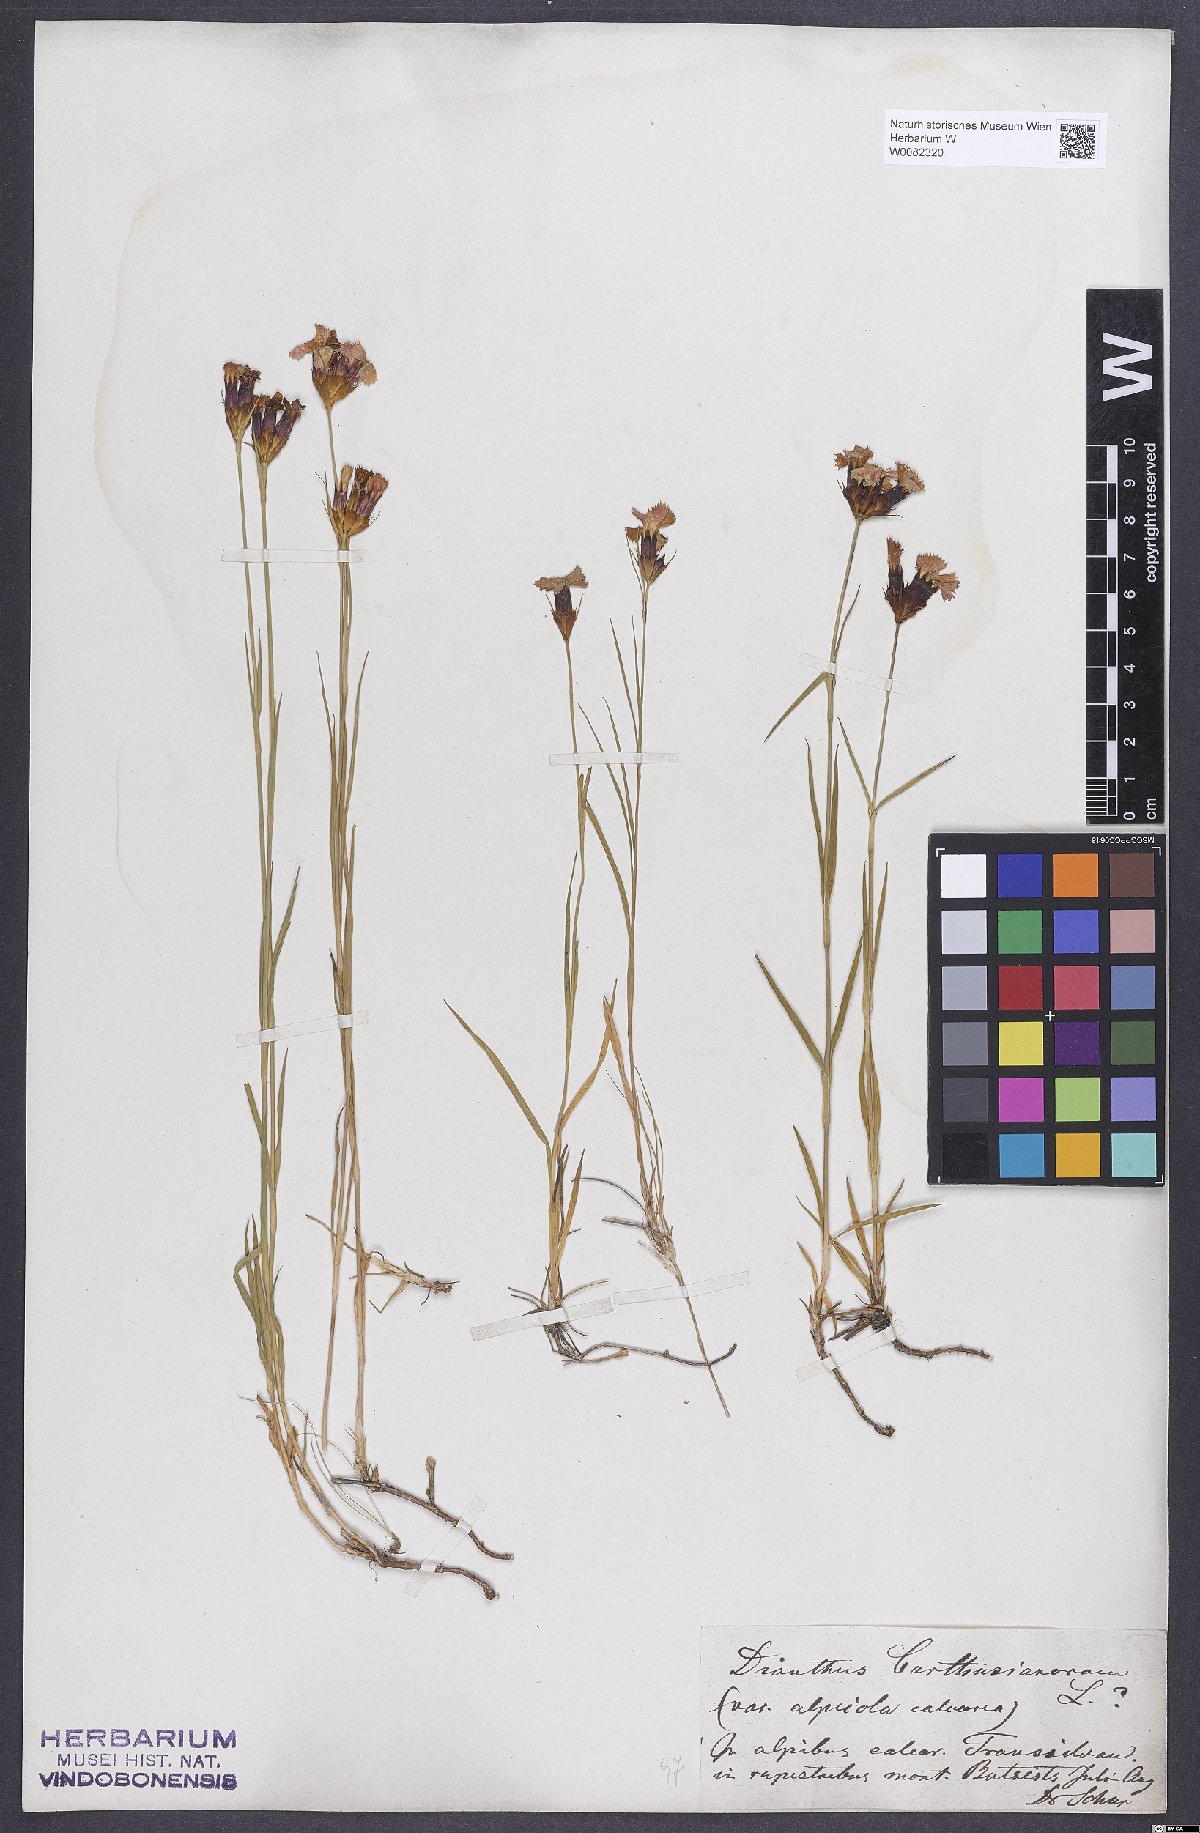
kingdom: Plantae
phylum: Tracheophyta
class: Magnoliopsida
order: Caryophyllales
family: Caryophyllaceae
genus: Dianthus
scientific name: Dianthus carthusianorum
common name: Carthusian pink
